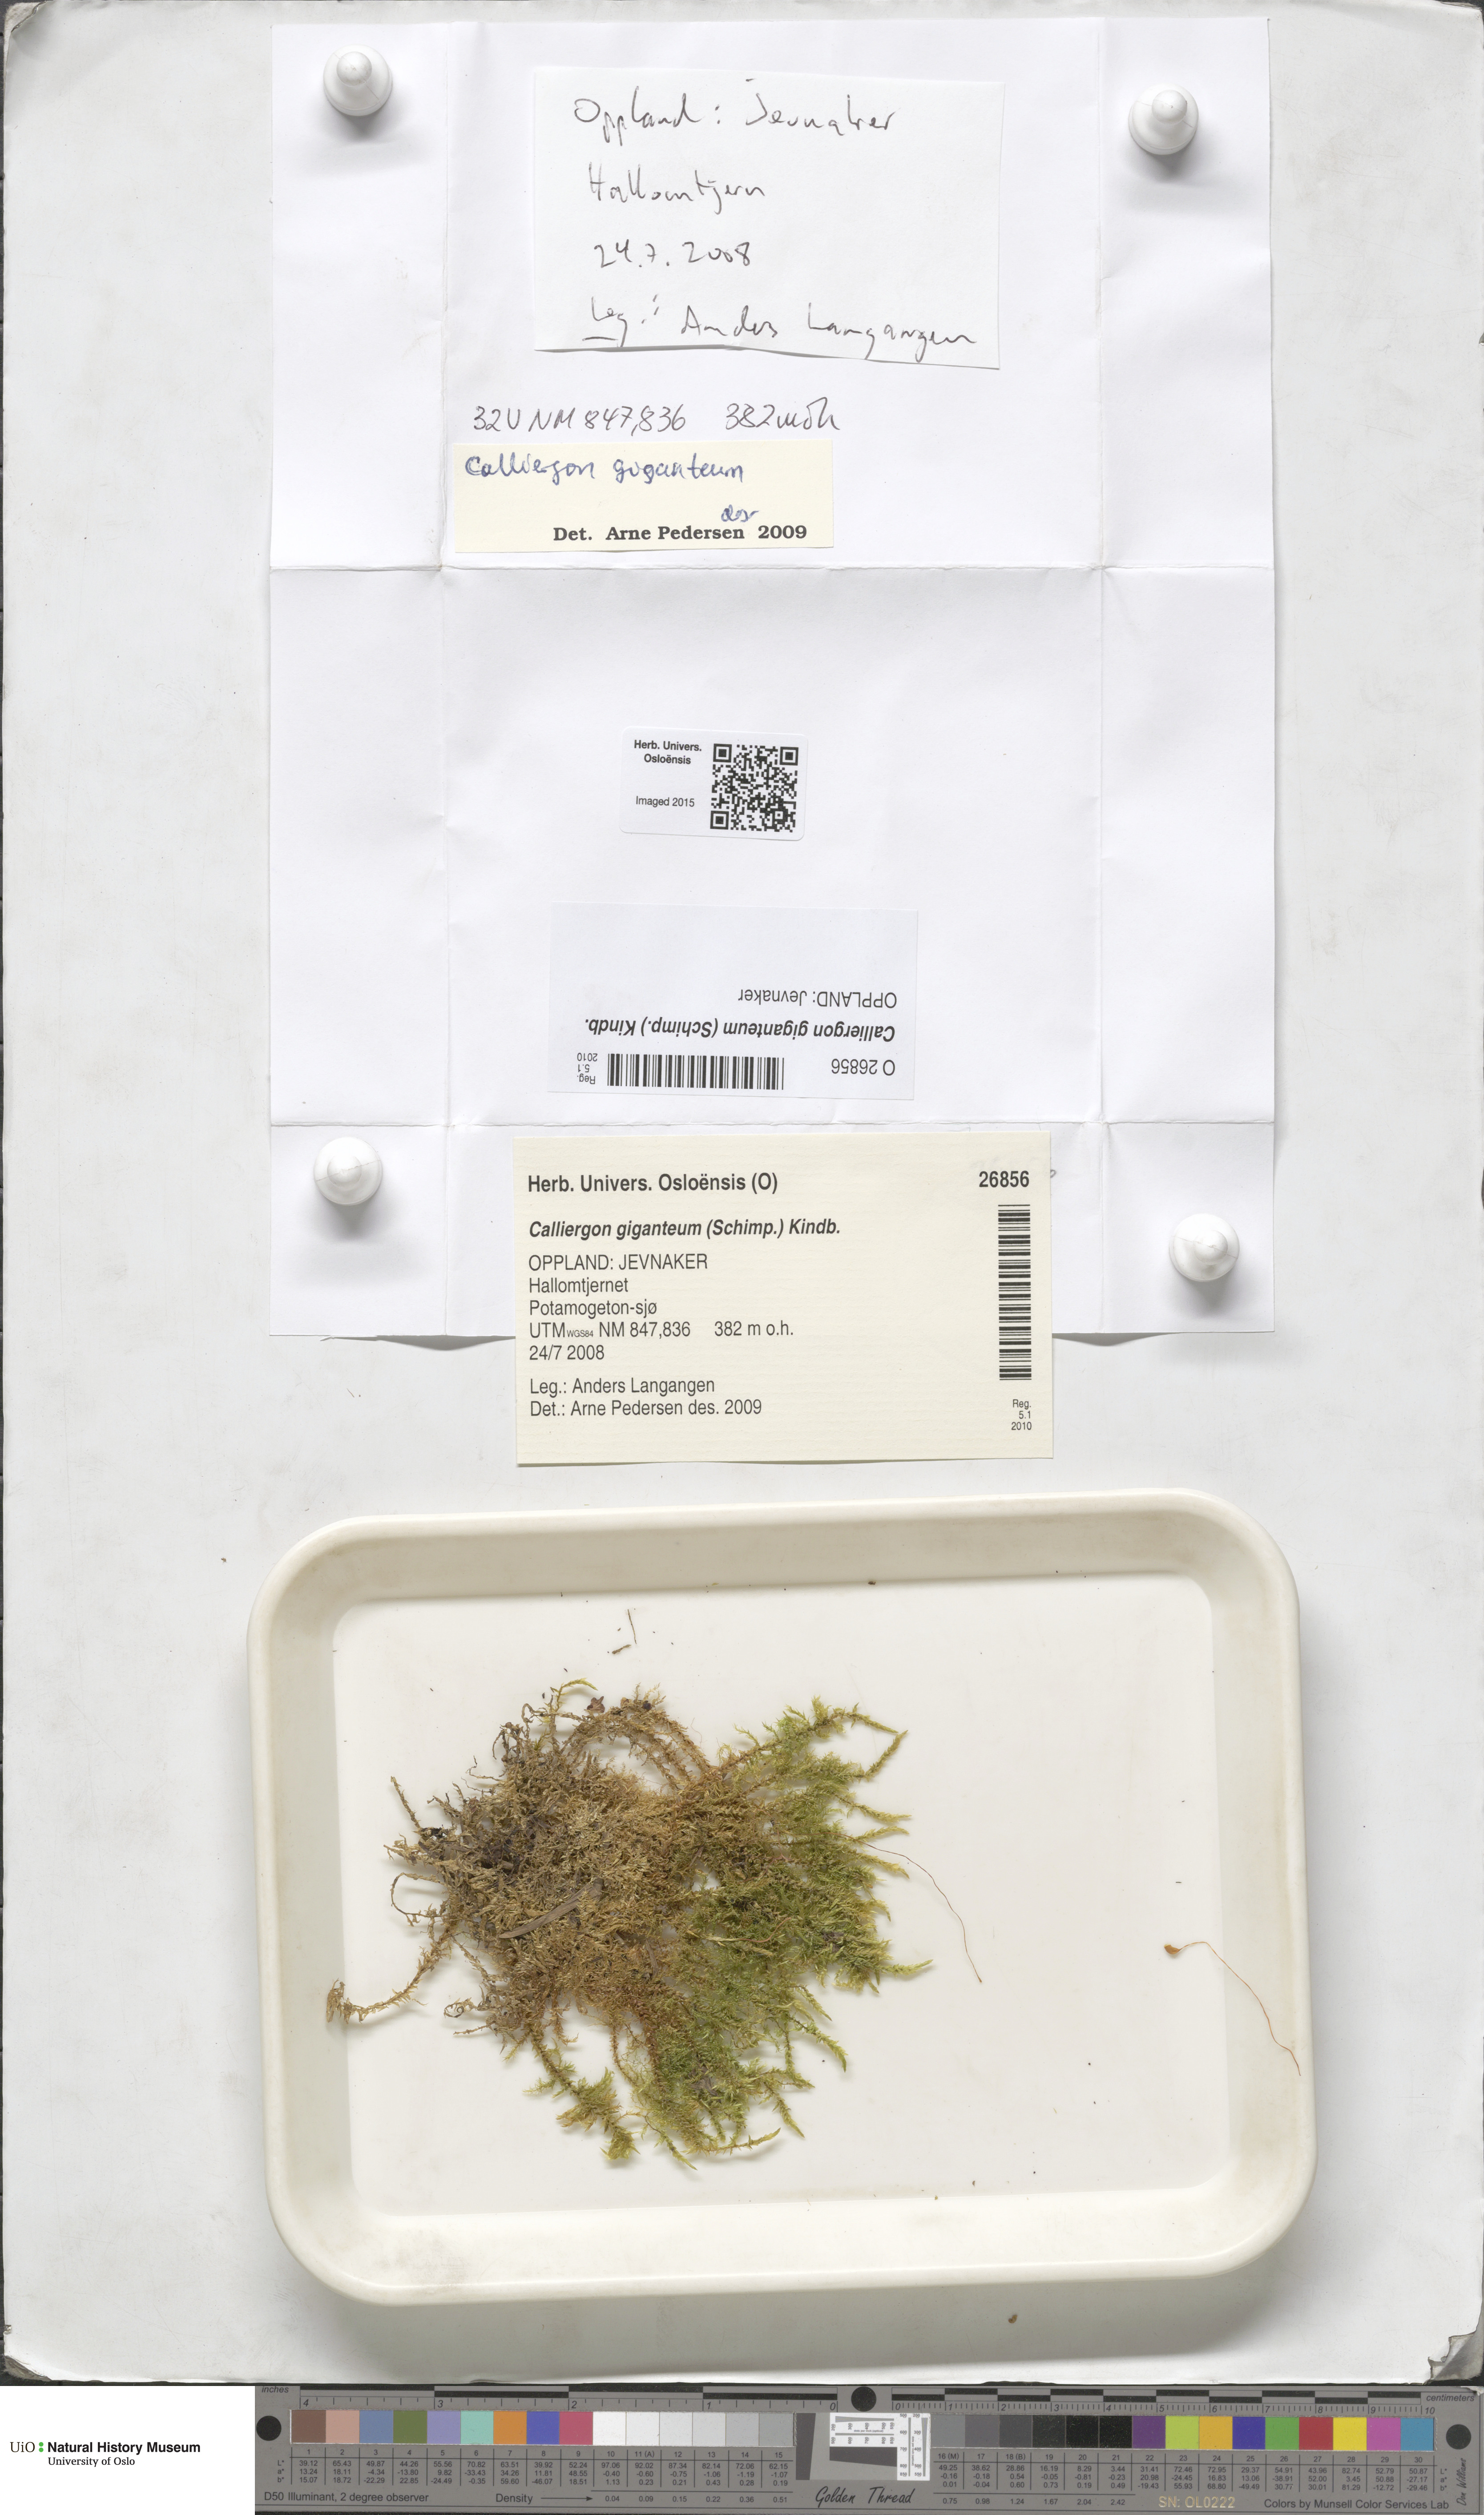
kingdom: Plantae
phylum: Bryophyta
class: Bryopsida
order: Hypnales
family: Calliergonaceae
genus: Calliergon
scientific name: Calliergon giganteum
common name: Giant spear moss
